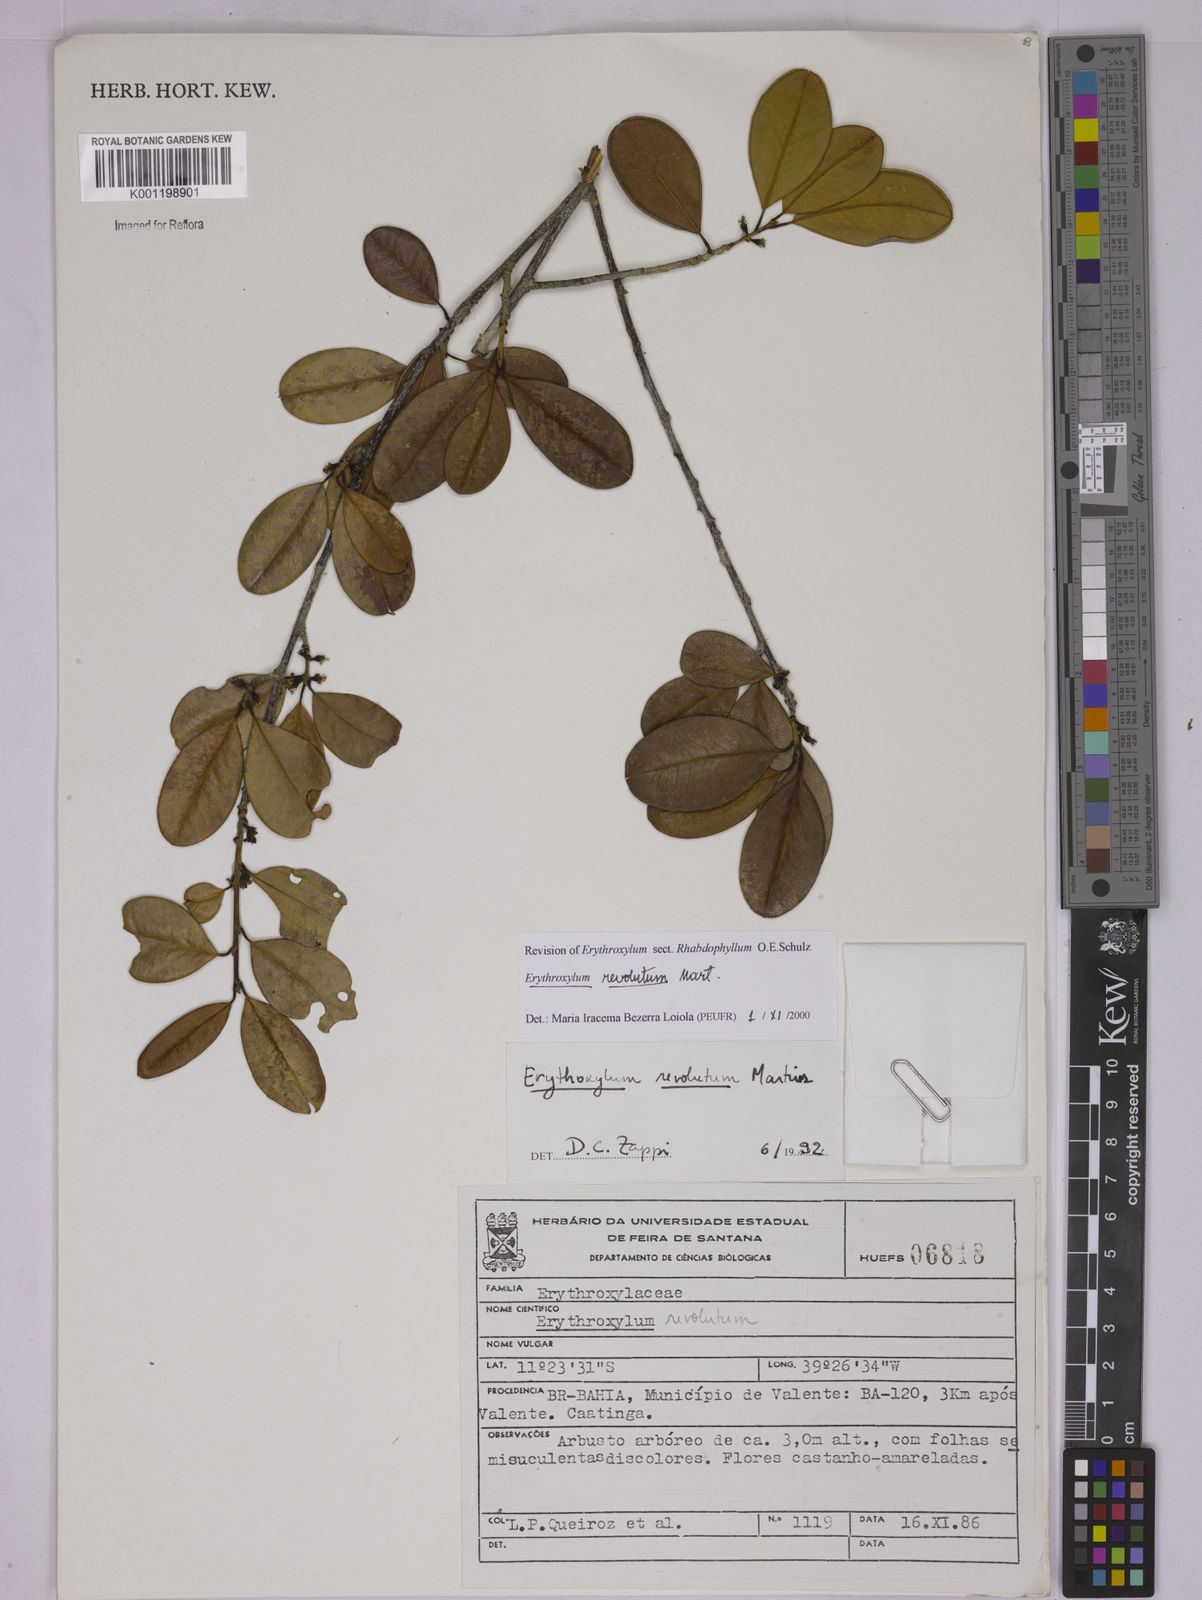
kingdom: Plantae
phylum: Tracheophyta
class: Magnoliopsida
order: Malpighiales
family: Erythroxylaceae
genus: Erythroxylum
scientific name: Erythroxylum revolutum
